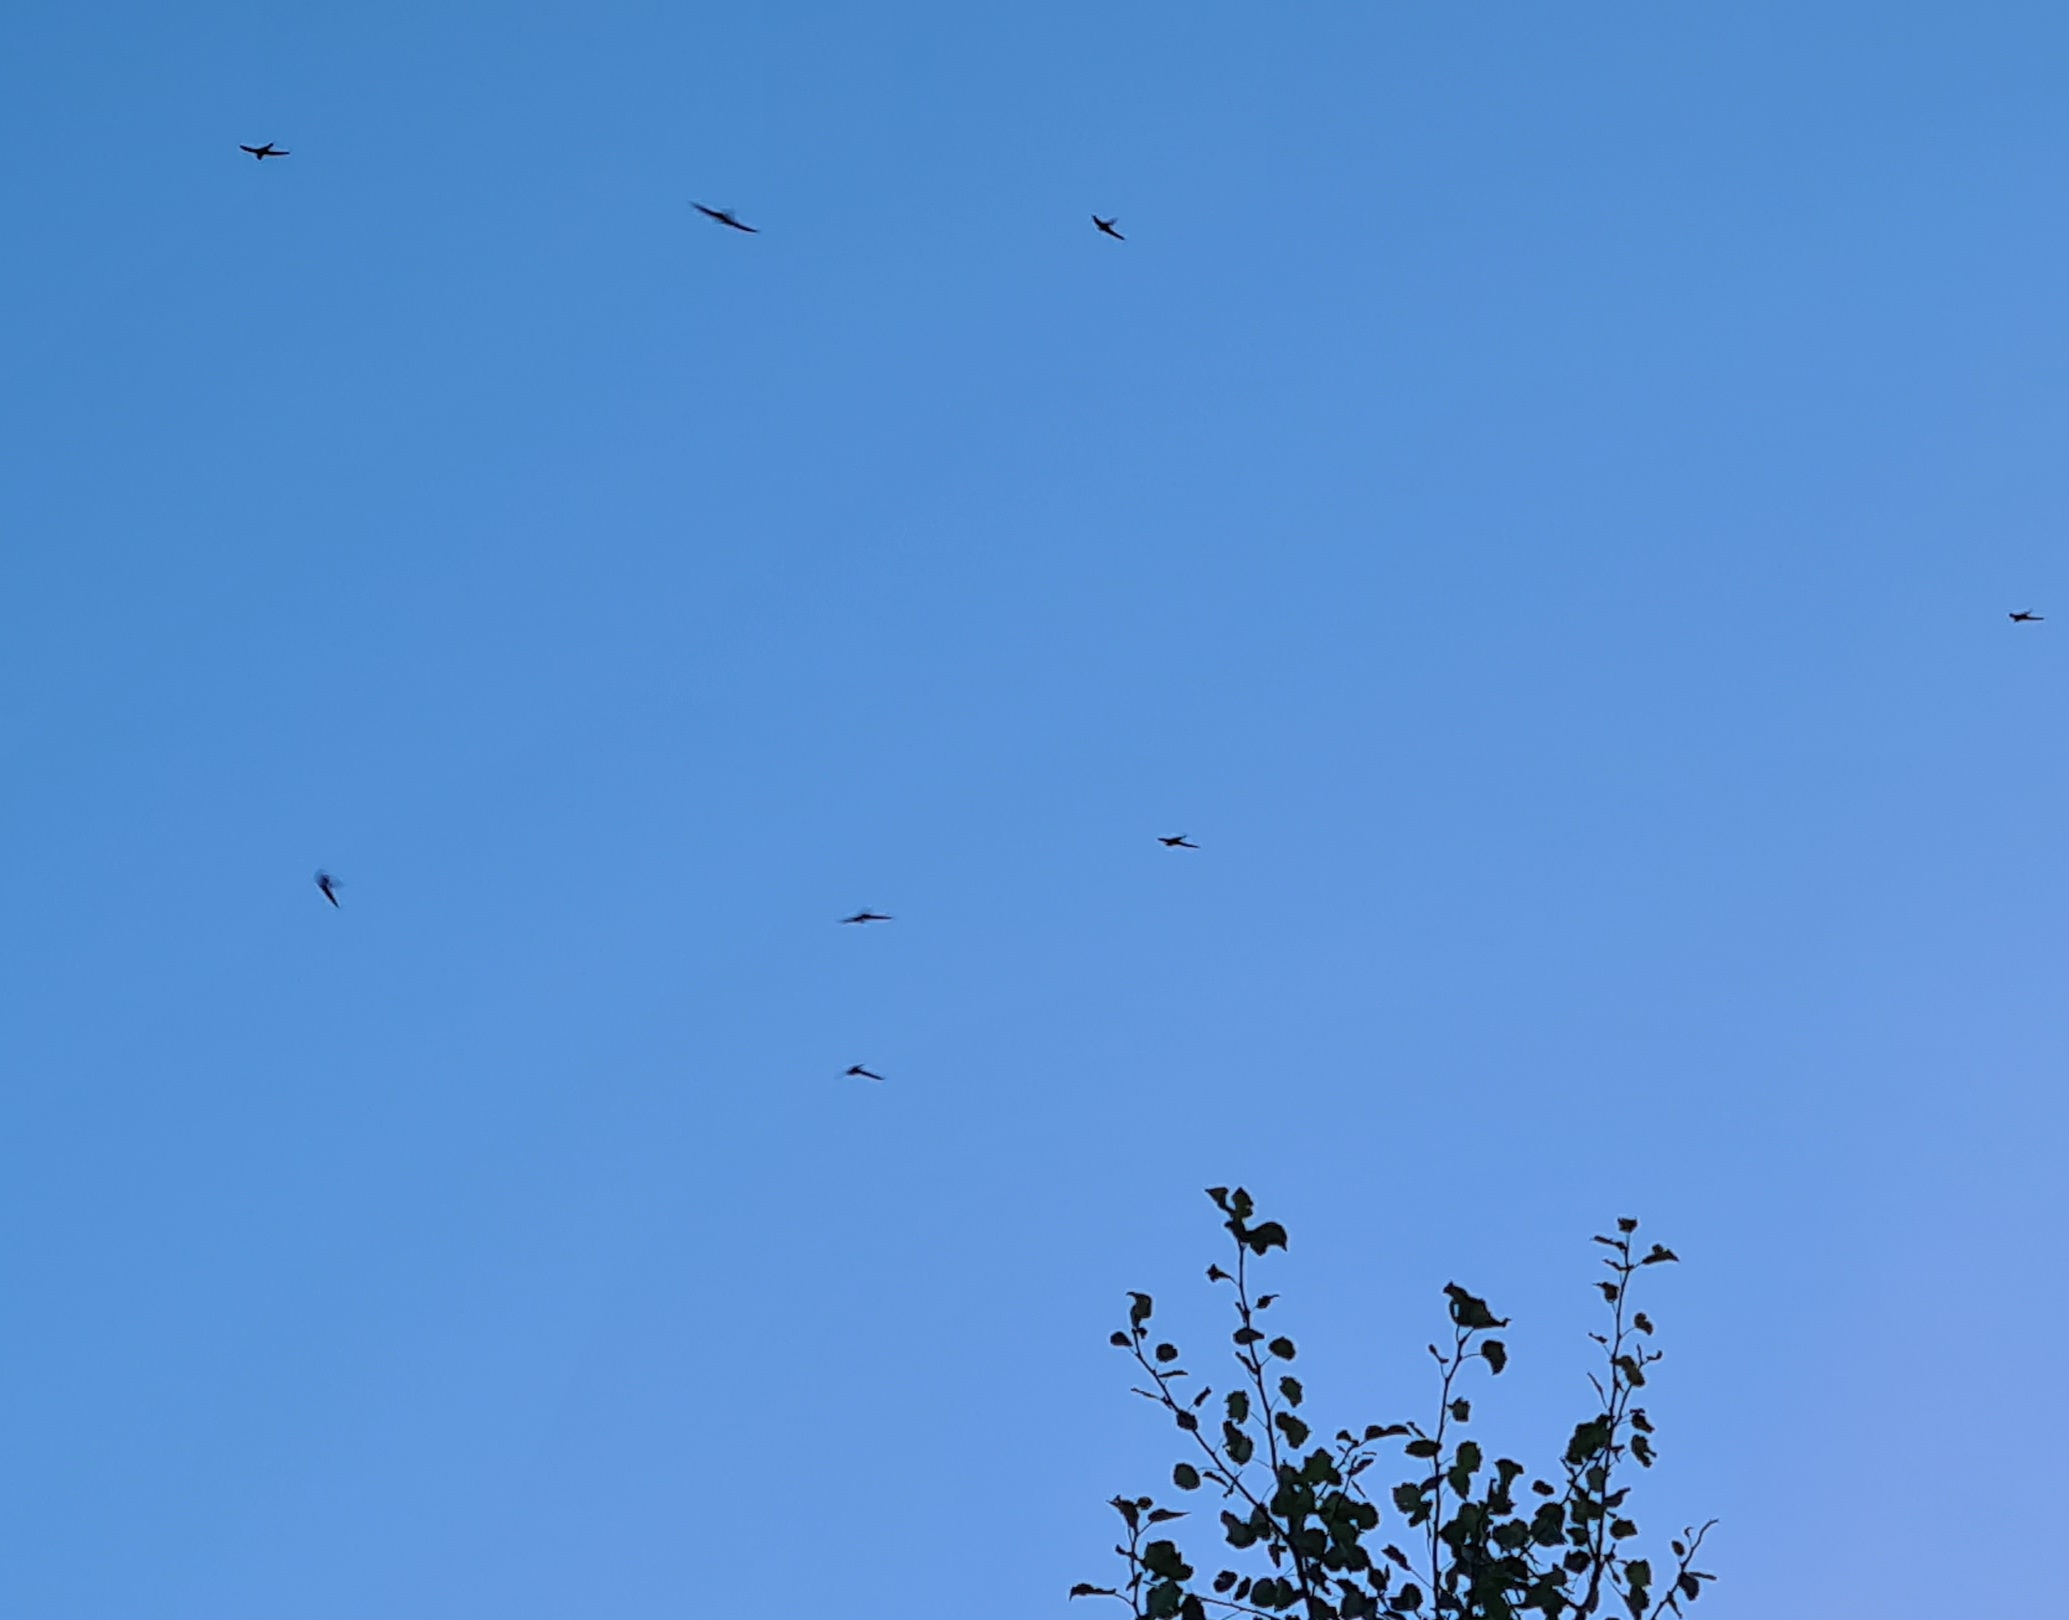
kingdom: Animalia
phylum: Chordata
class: Aves
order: Apodiformes
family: Apodidae
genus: Apus
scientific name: Apus apus
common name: Mursejler
